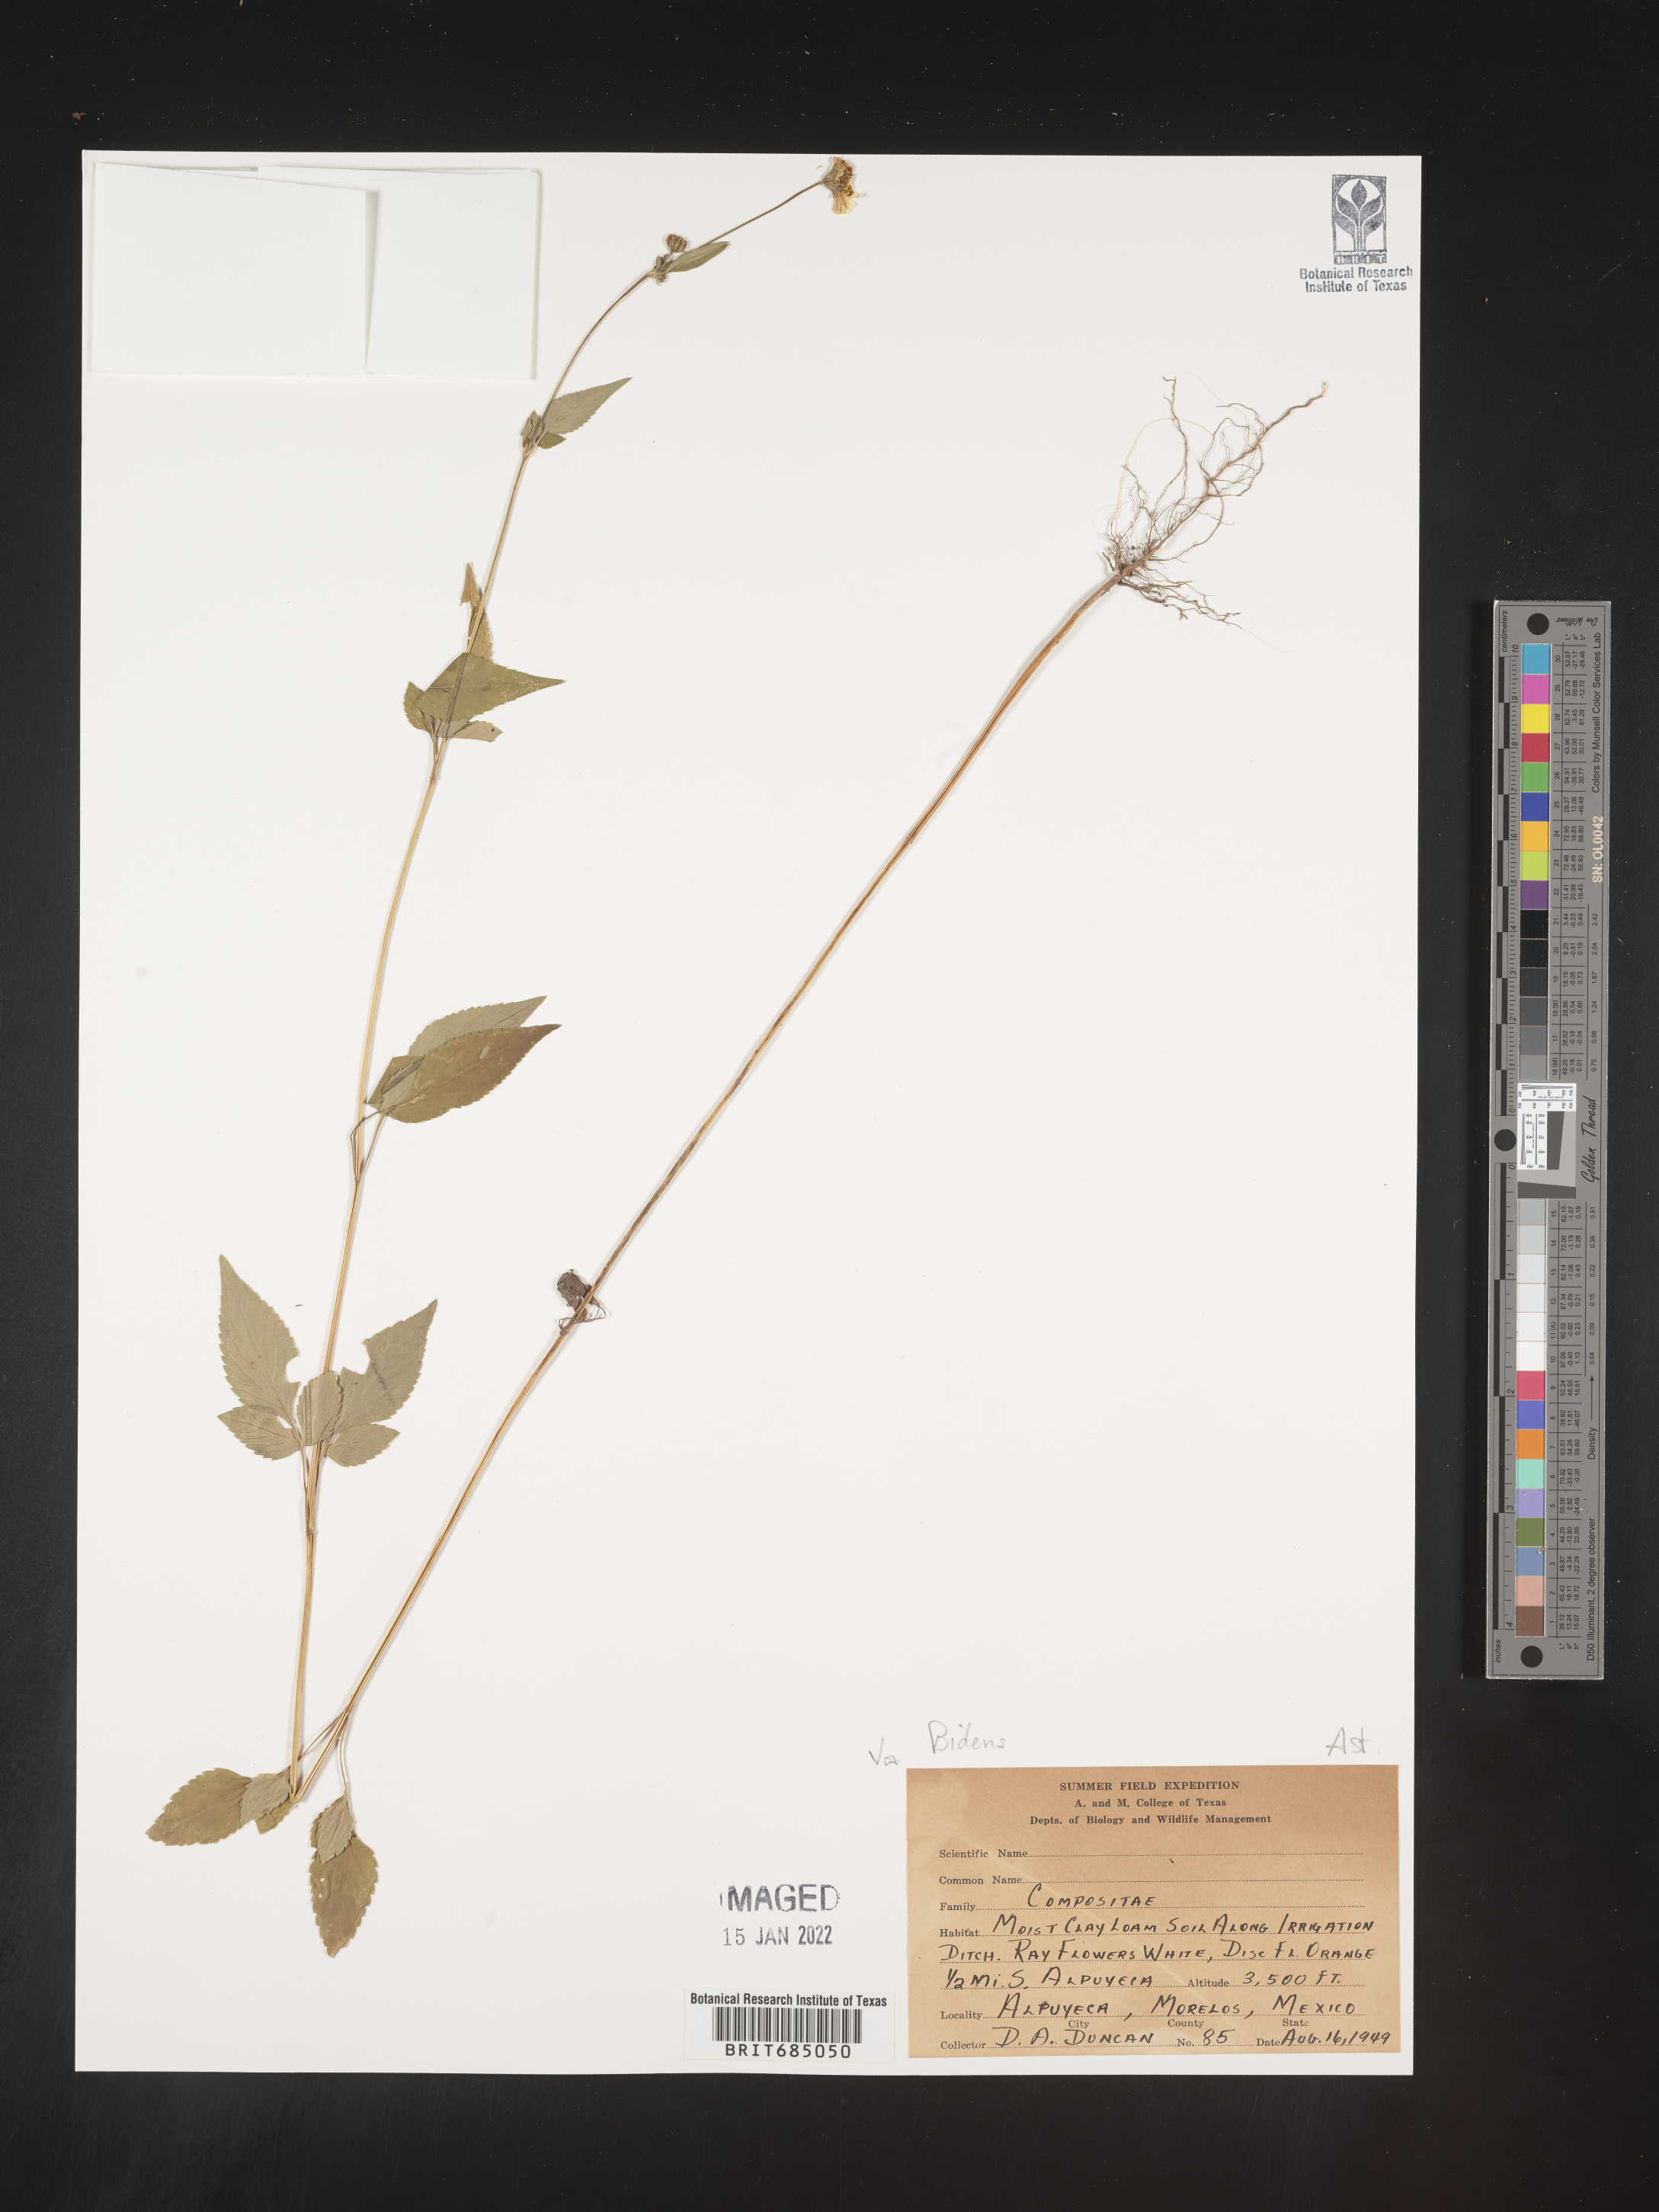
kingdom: Plantae
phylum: Tracheophyta
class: Magnoliopsida
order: Asterales
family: Asteraceae
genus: Bidens
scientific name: Bidens
